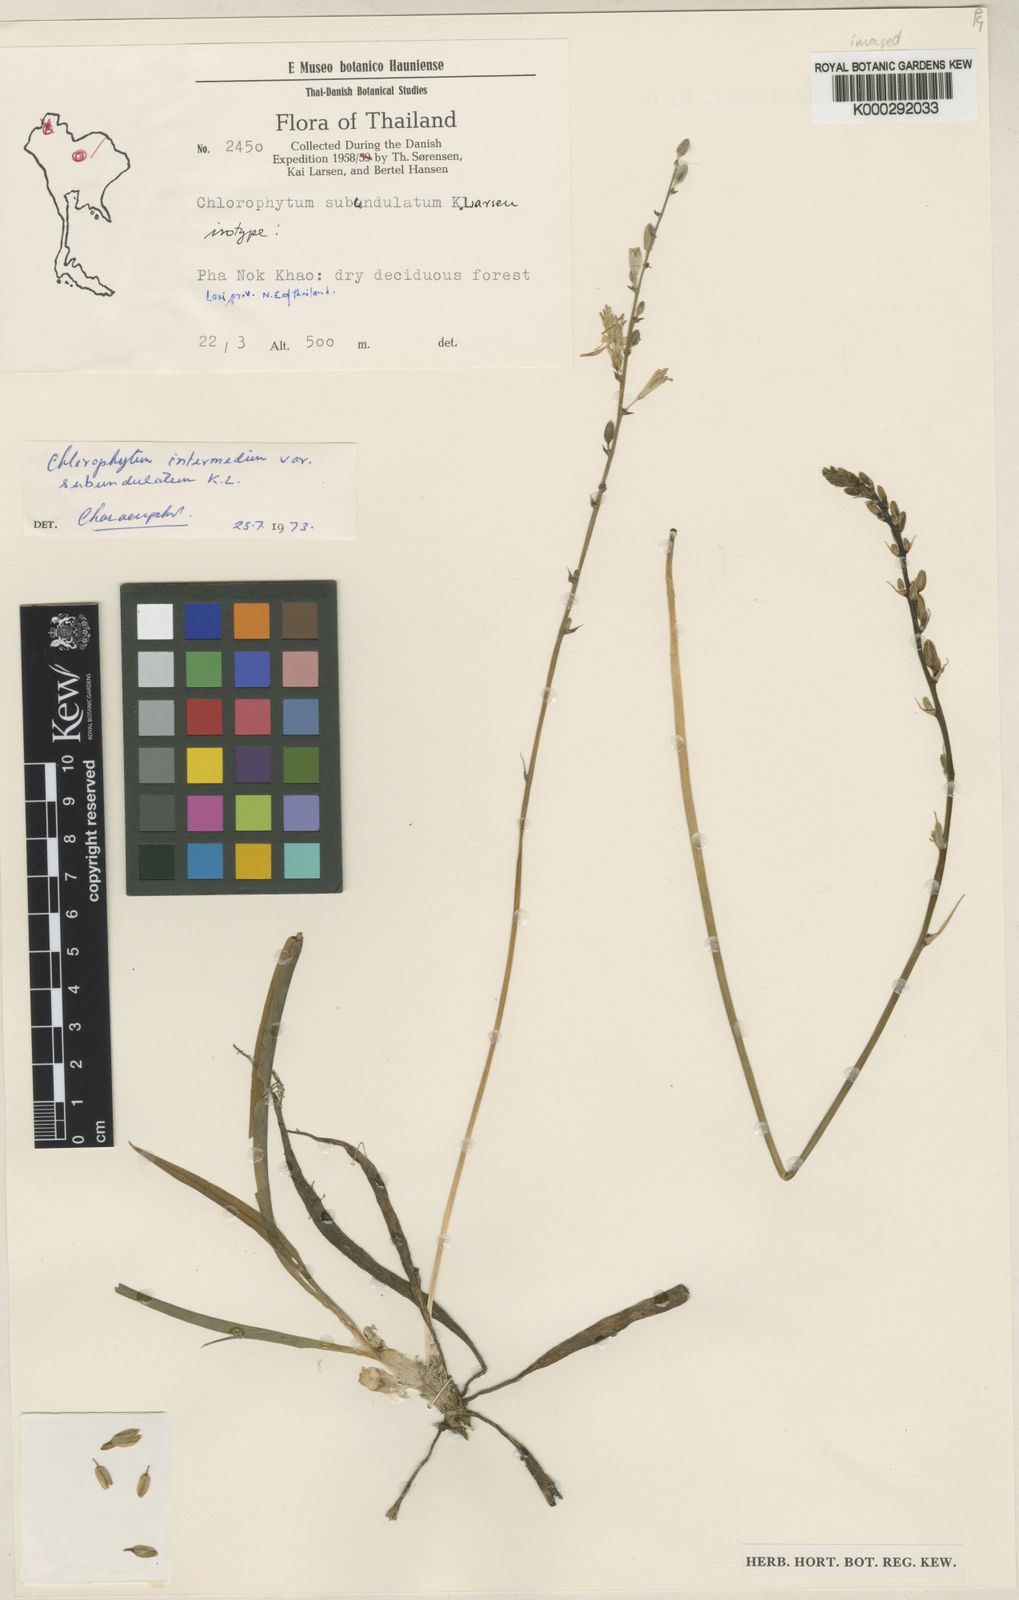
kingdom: Plantae
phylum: Tracheophyta
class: Liliopsida
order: Asparagales
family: Asparagaceae
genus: Chlorophytum
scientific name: Chlorophytum intermedium
